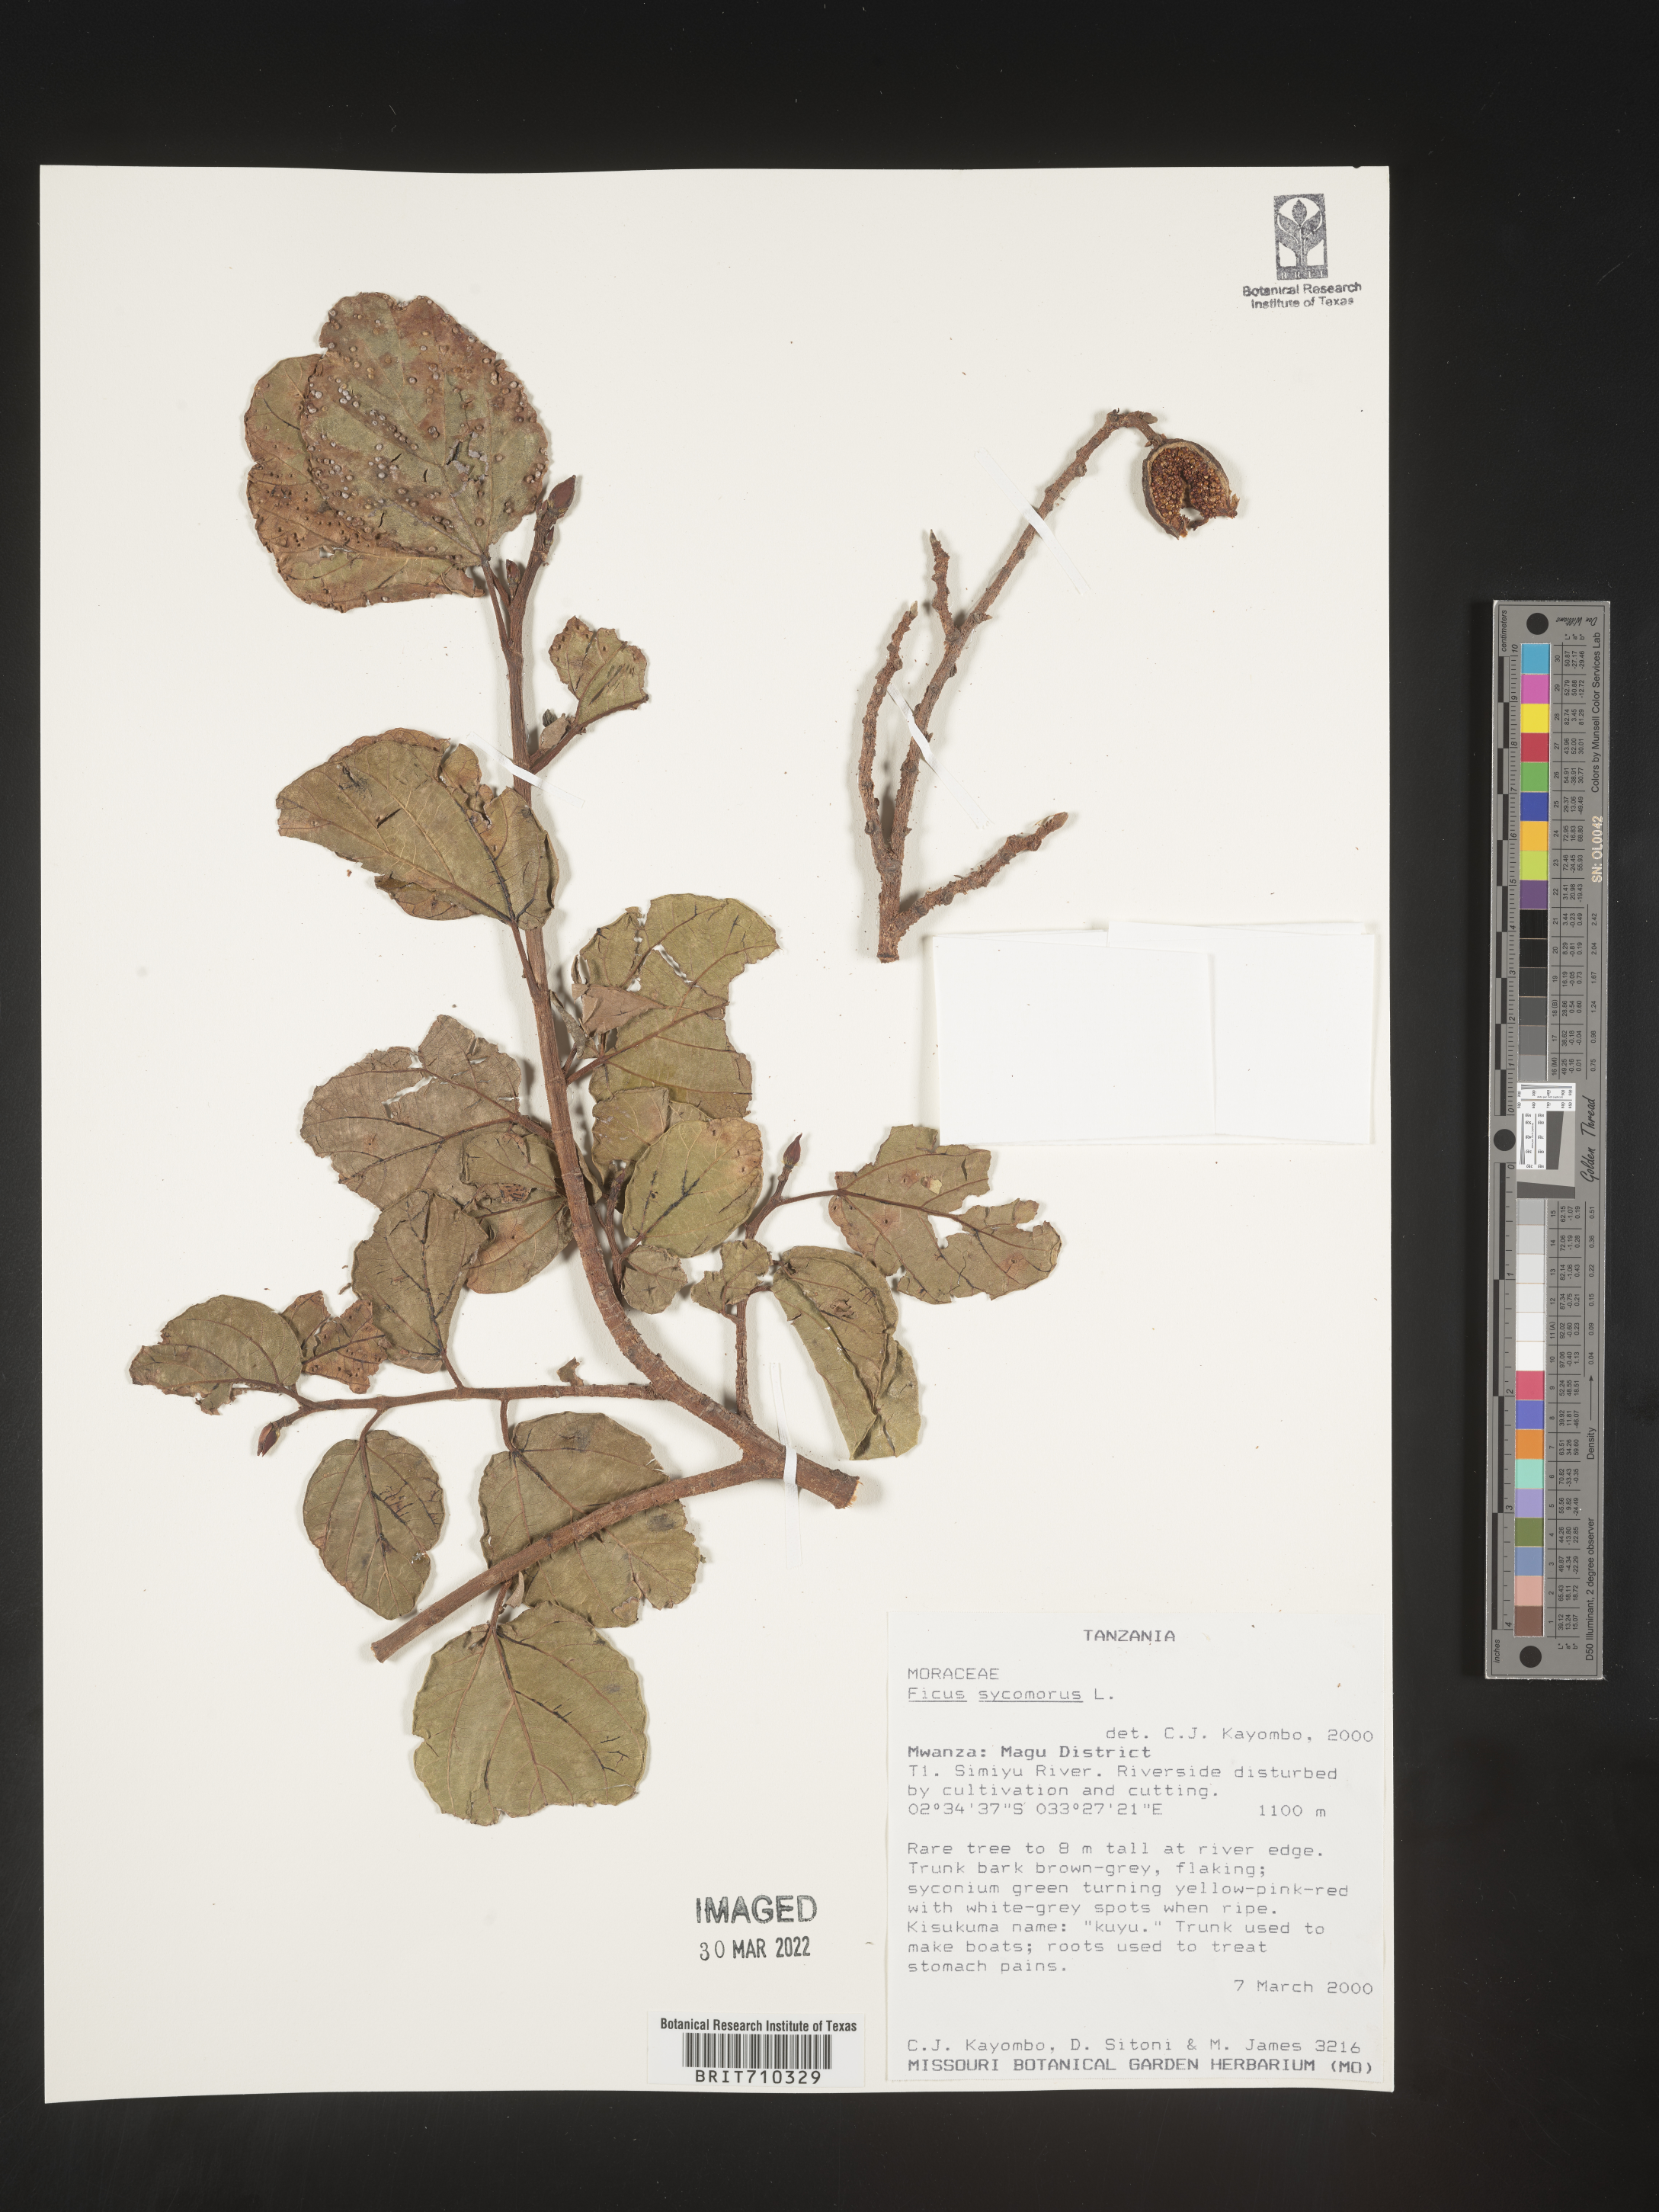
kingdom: Plantae
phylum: Tracheophyta
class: Magnoliopsida
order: Rosales
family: Moraceae
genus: Ficus
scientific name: Ficus
